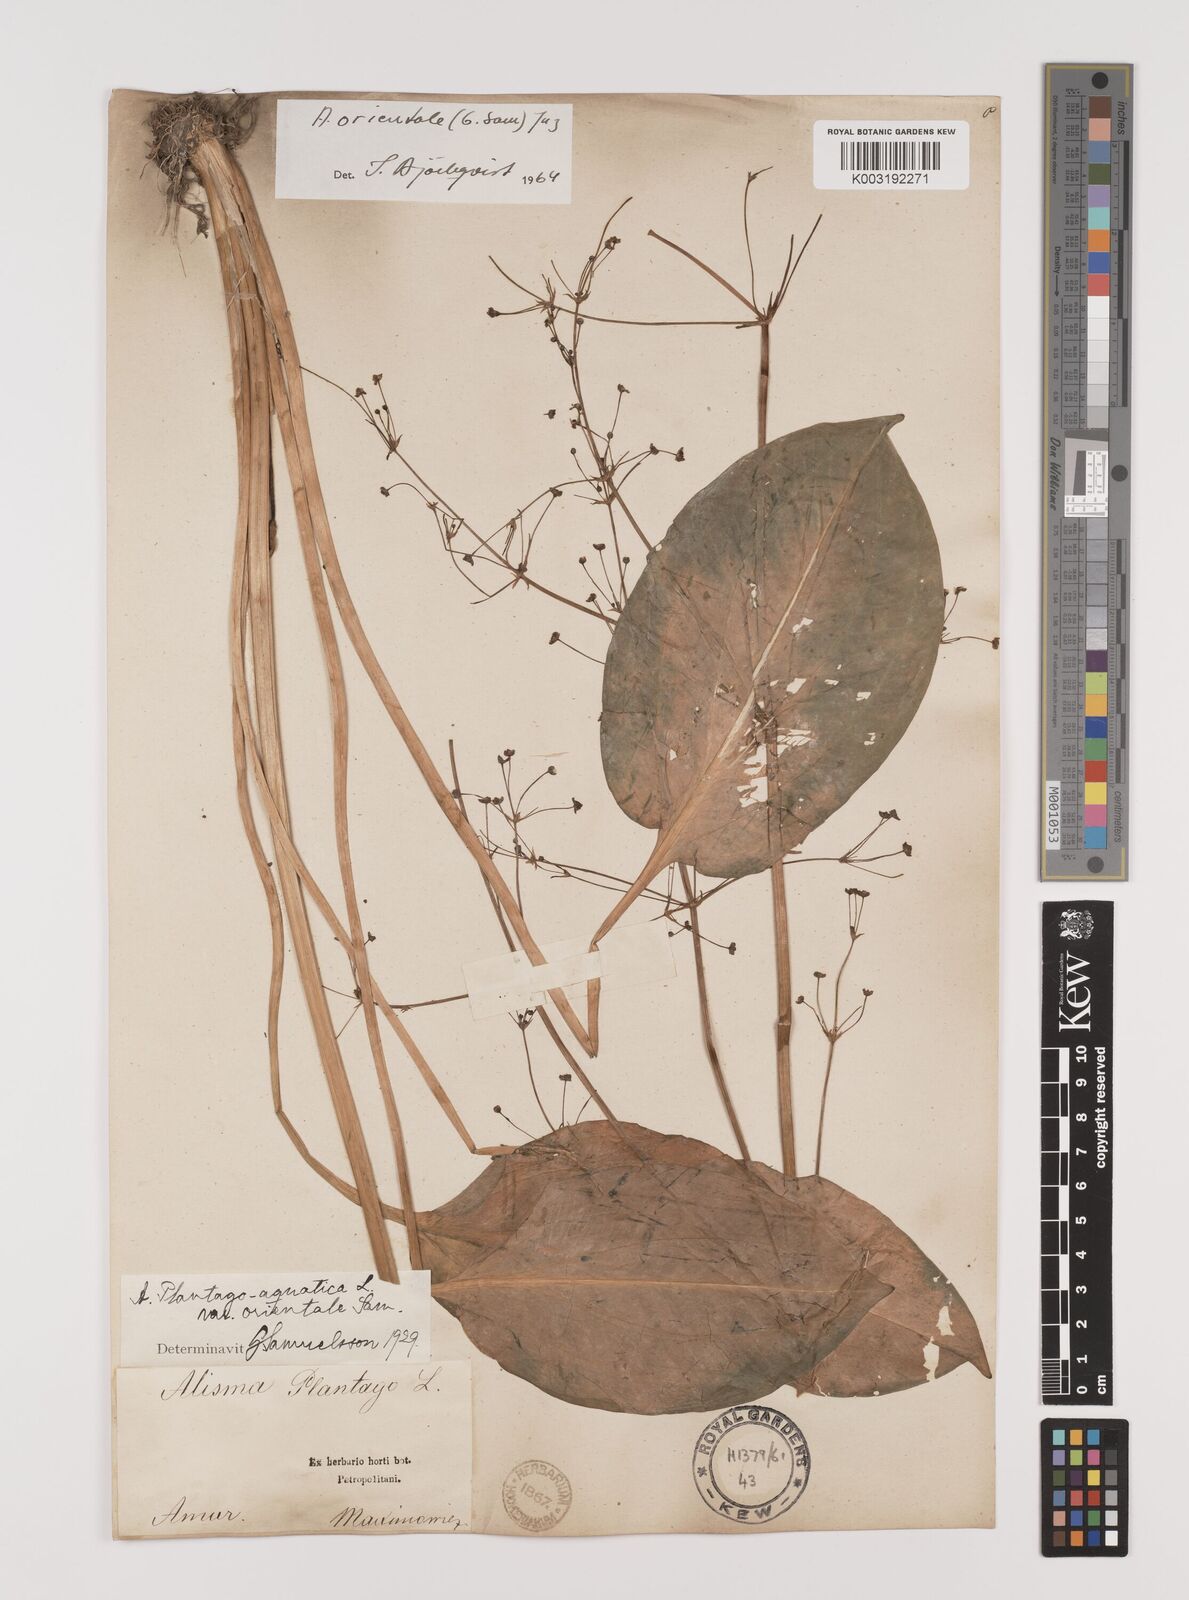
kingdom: Plantae
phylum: Tracheophyta
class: Liliopsida
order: Alismatales
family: Alismataceae
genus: Alisma
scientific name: Alisma plantago-aquatica
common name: Water-plantain
